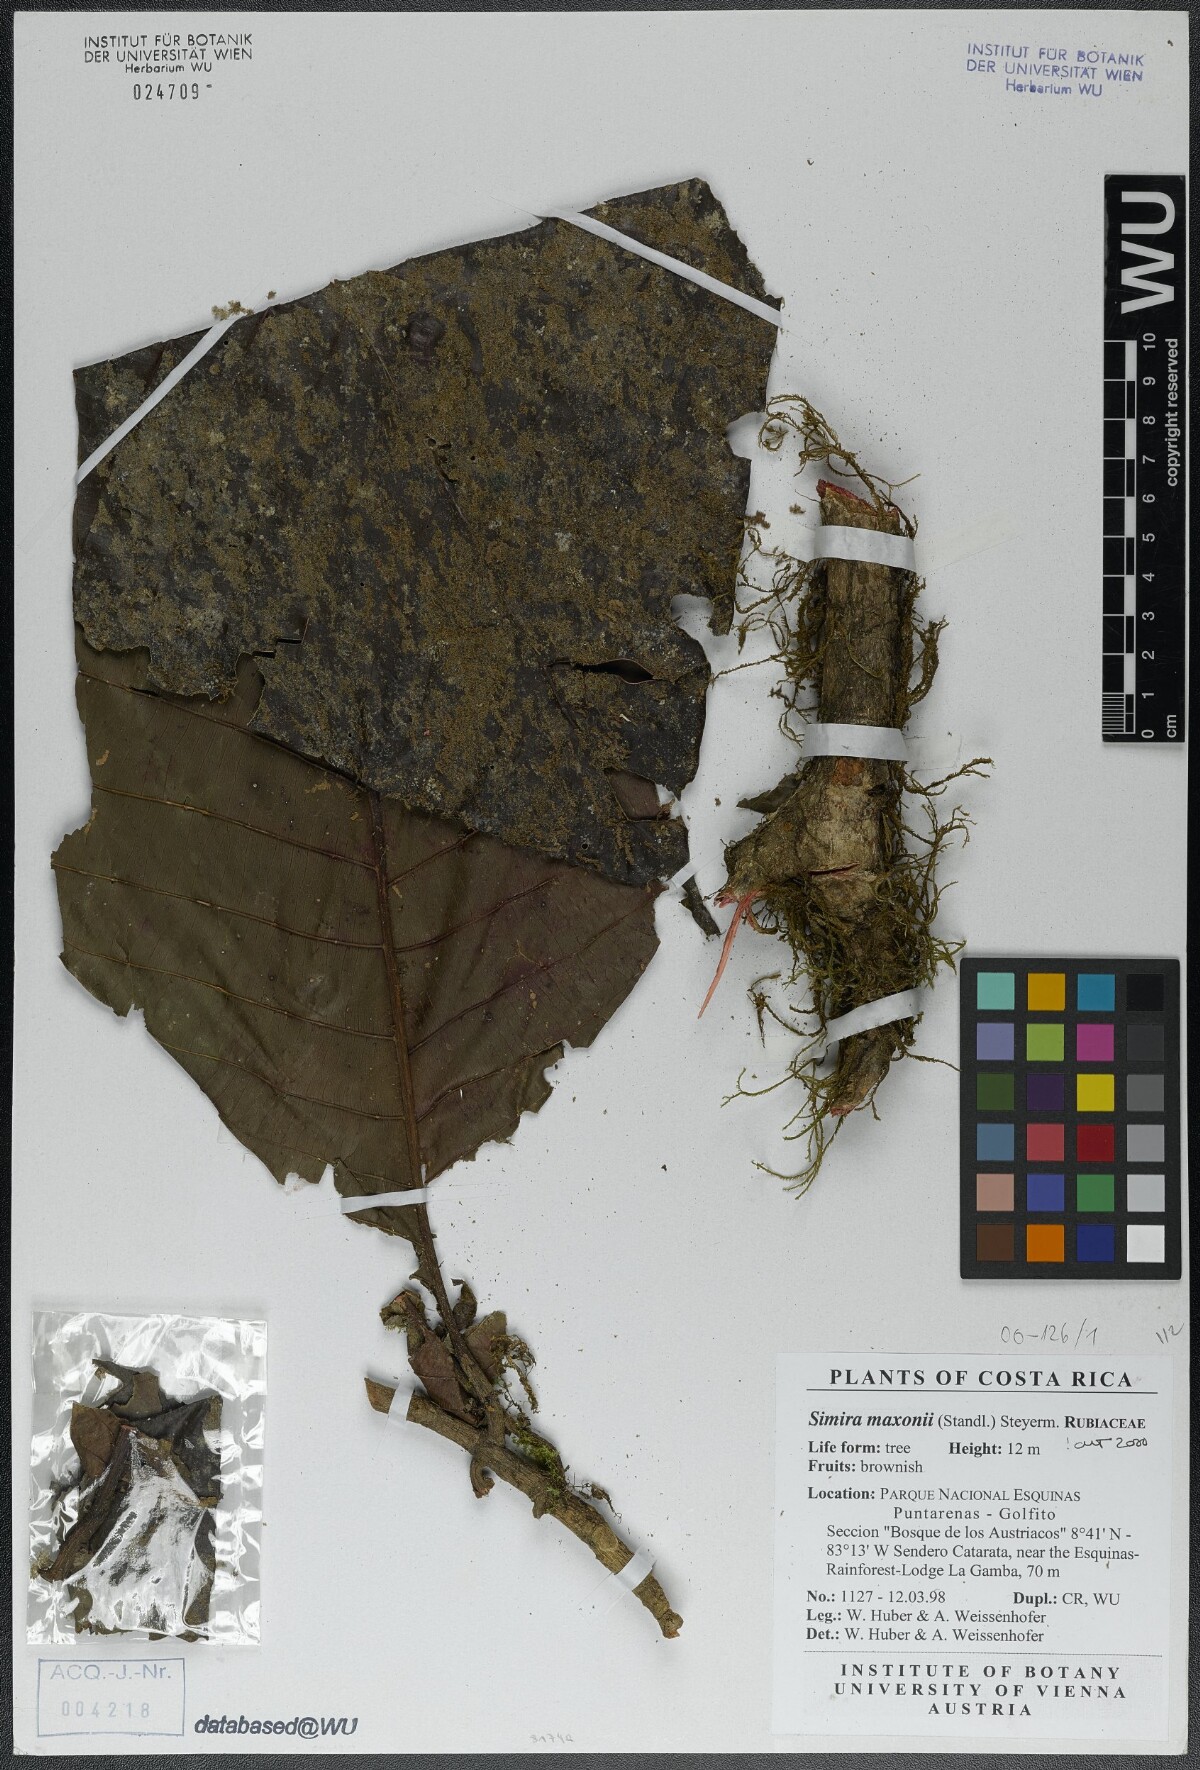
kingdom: Plantae
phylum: Tracheophyta
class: Magnoliopsida
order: Gentianales
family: Rubiaceae
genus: Simira
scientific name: Simira maxonii
